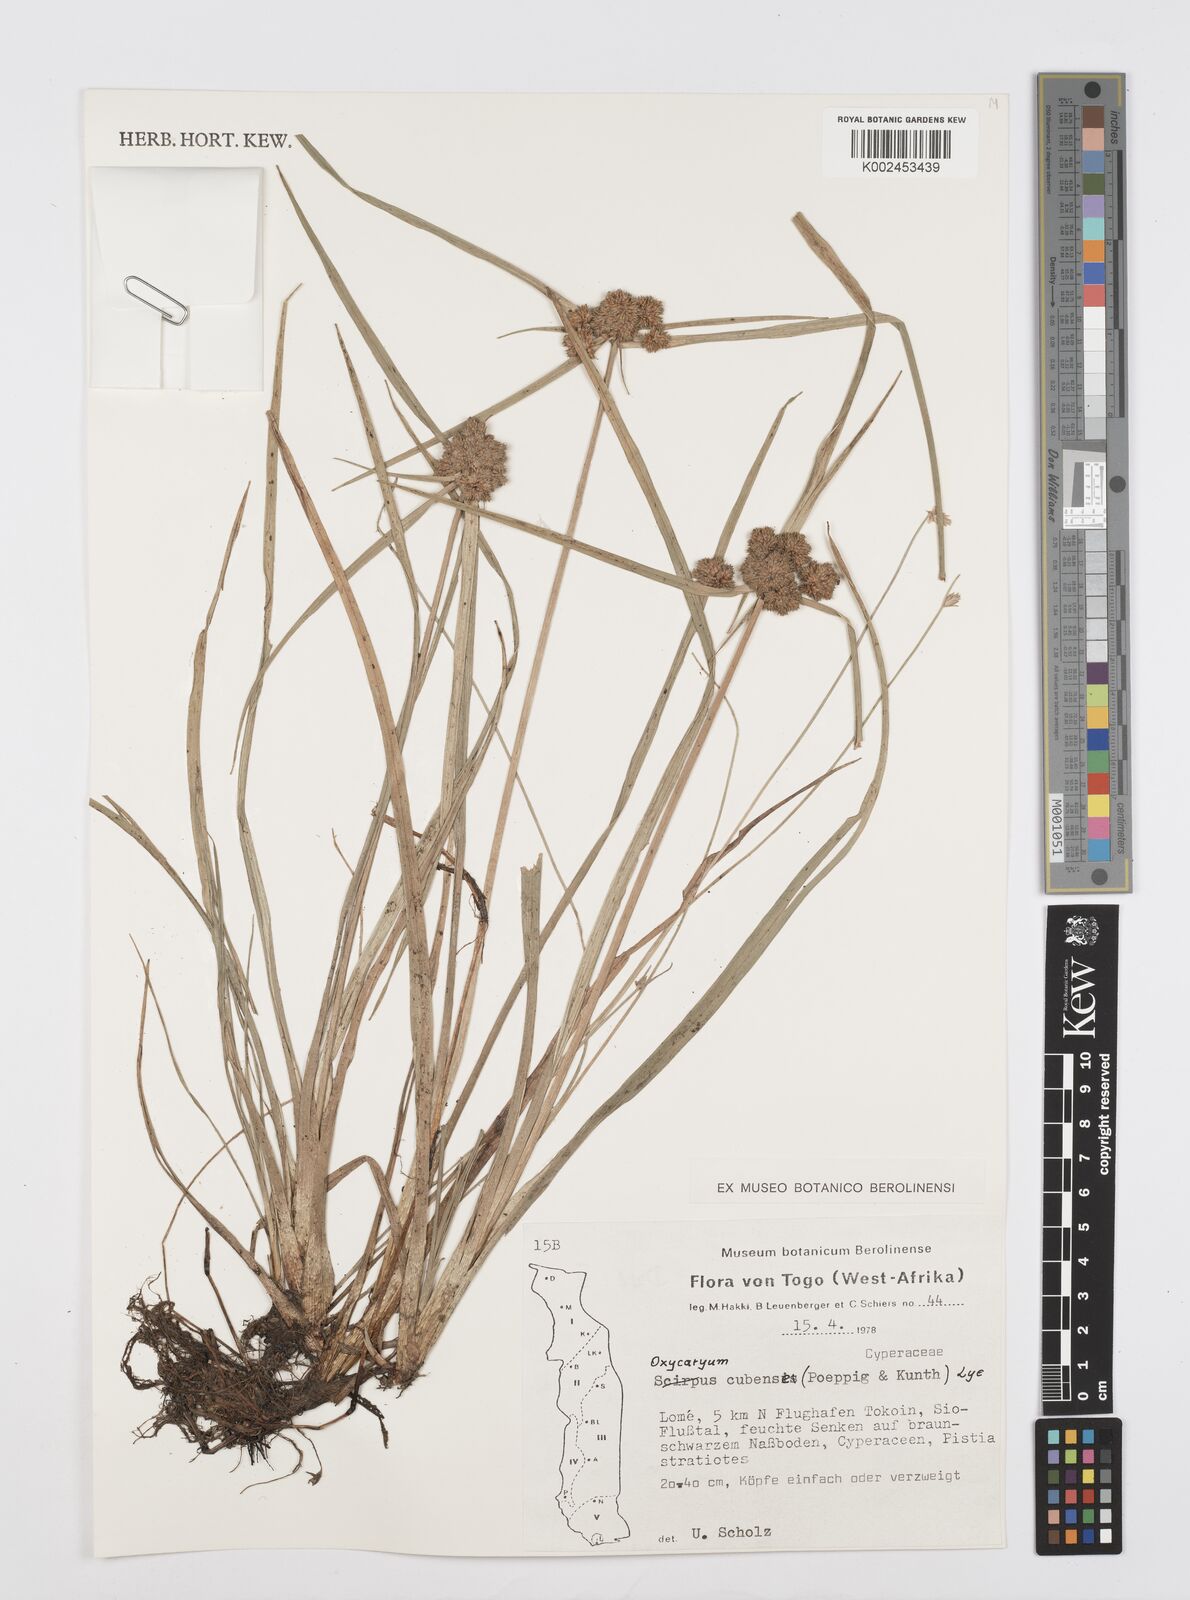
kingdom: Plantae
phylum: Tracheophyta
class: Liliopsida
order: Poales
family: Cyperaceae
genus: Cyperus
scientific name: Cyperus elegans
